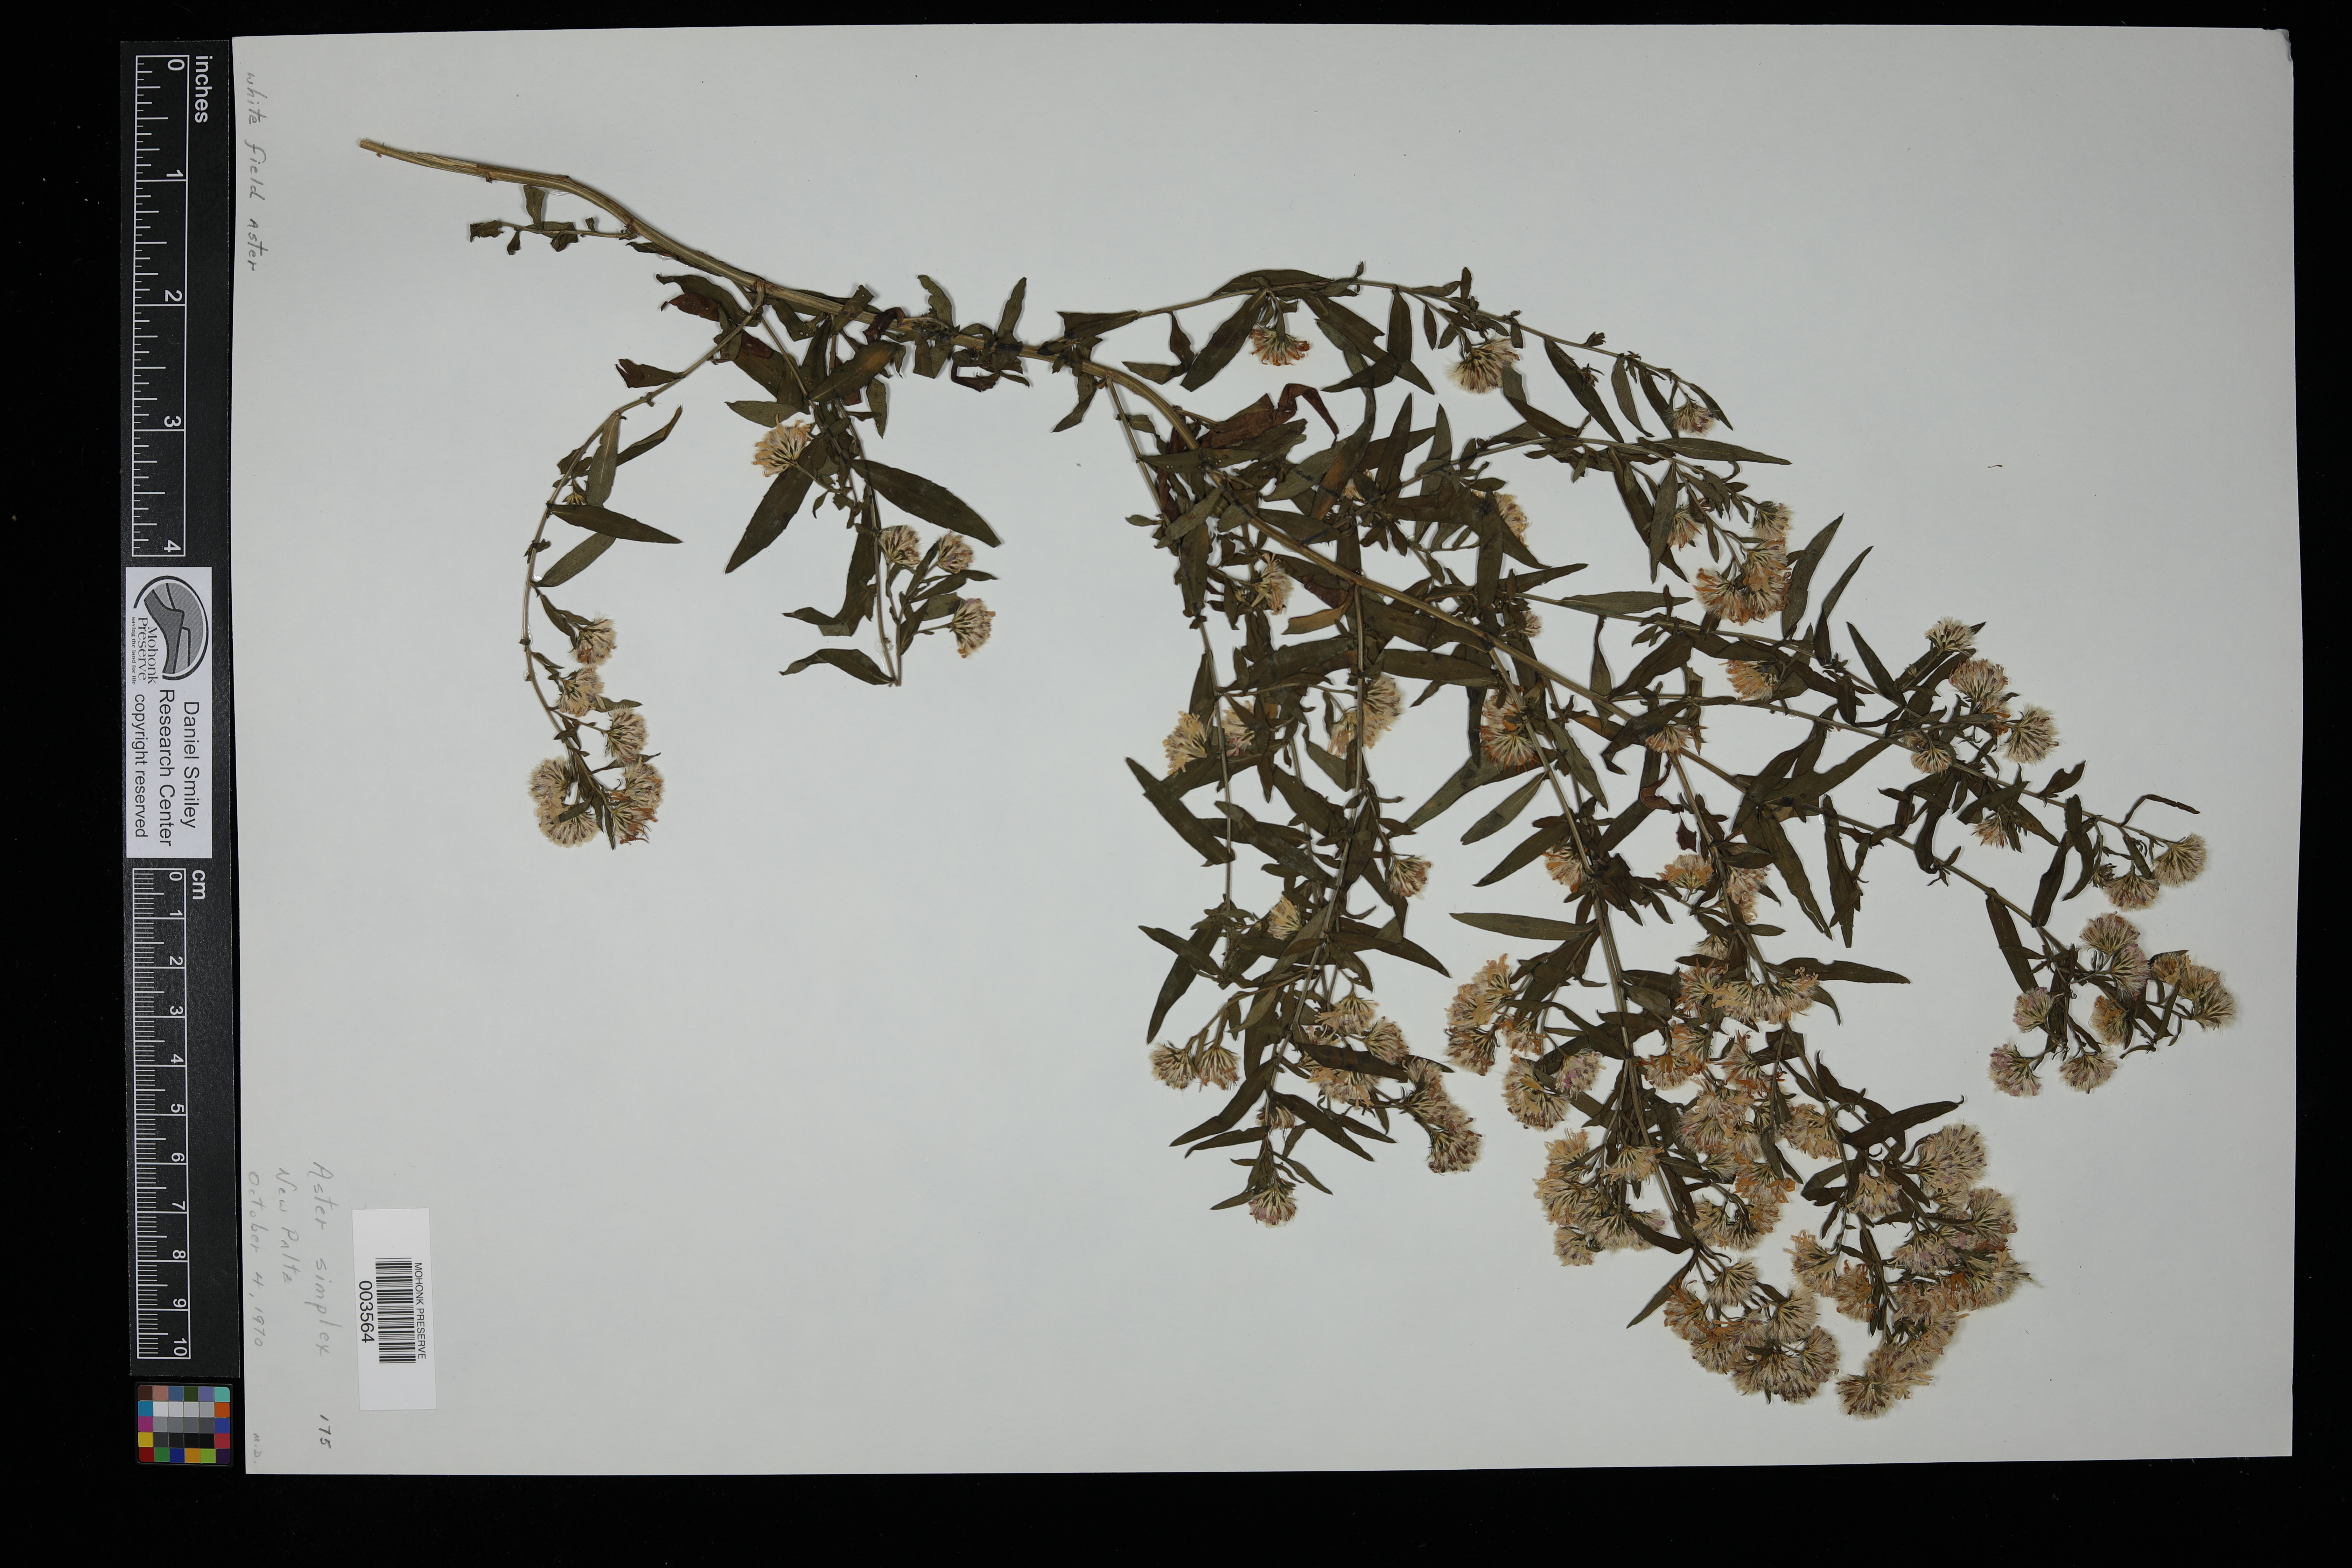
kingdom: Plantae
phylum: Tracheophyta
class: Magnoliopsida
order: Asterales
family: Asteraceae
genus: Symphyotrichum
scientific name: Symphyotrichum lanceolatum
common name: Panicled aster
